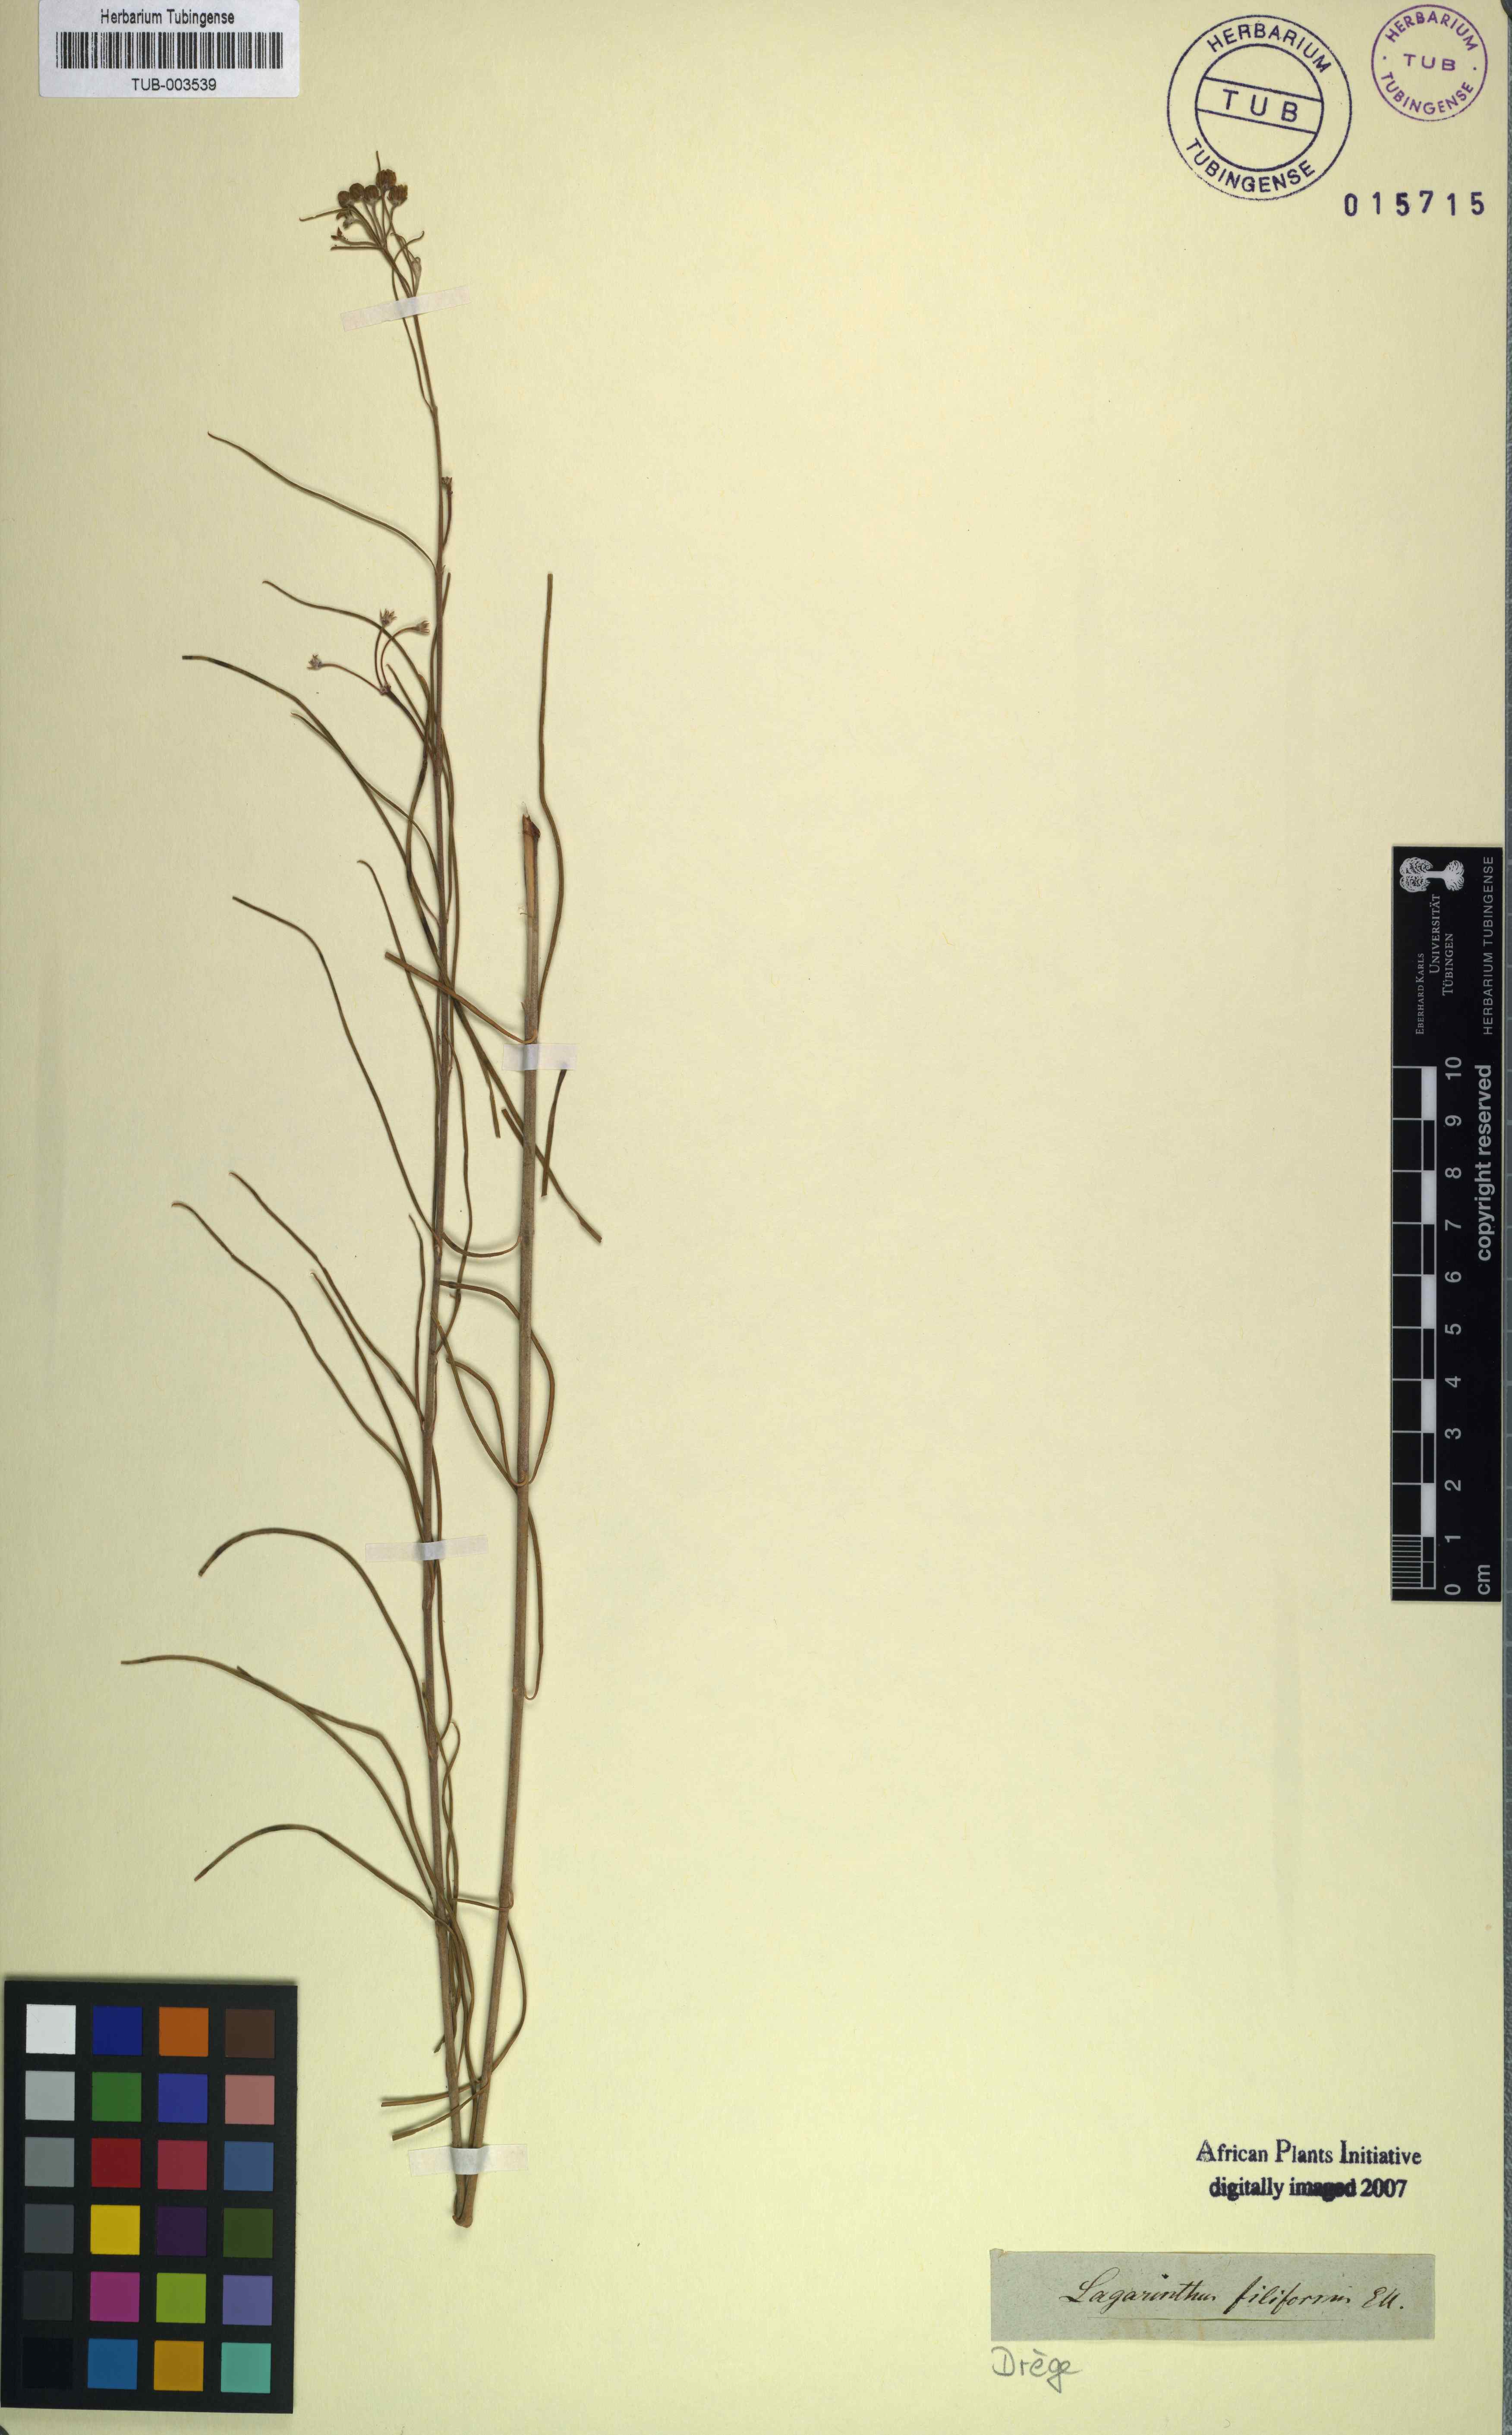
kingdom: Plantae
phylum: Tracheophyta
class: Magnoliopsida
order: Gentianales
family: Apocynaceae
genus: Gomphocarpus
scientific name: Gomphocarpus filiformis
